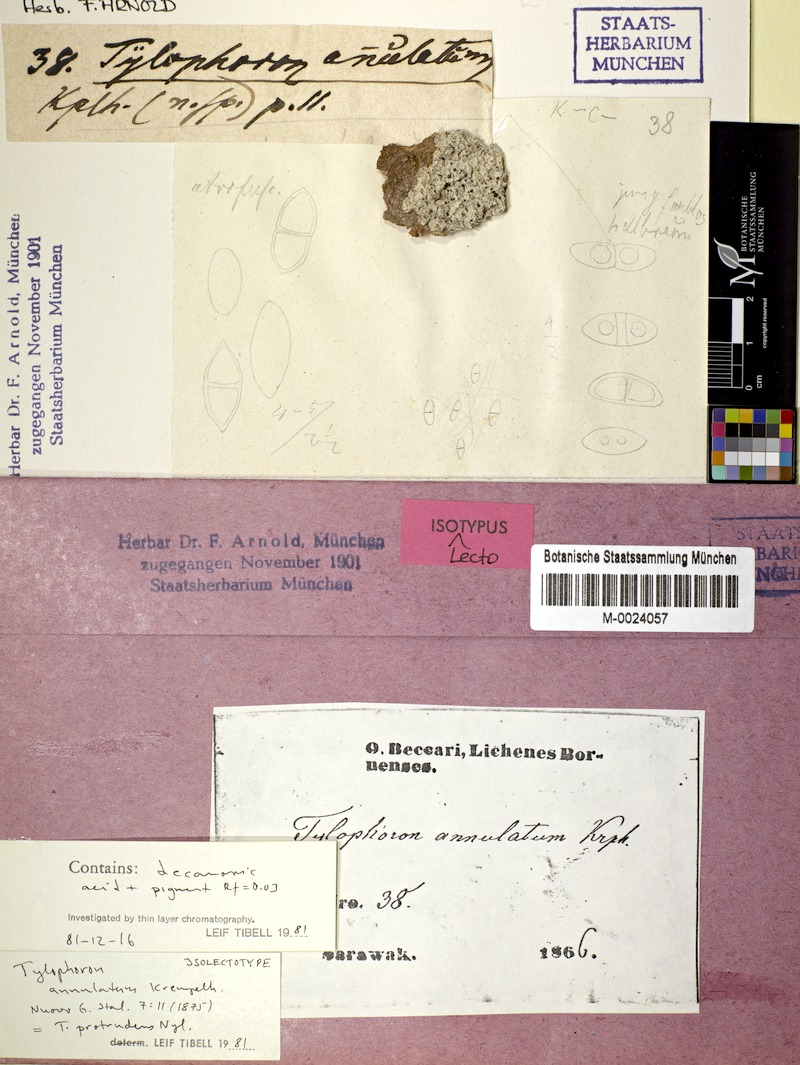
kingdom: Fungi
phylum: Ascomycota
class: Arthoniomycetes
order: Arthoniales
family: Arthoniaceae
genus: Tylophoron
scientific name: Tylophoron protrudens
